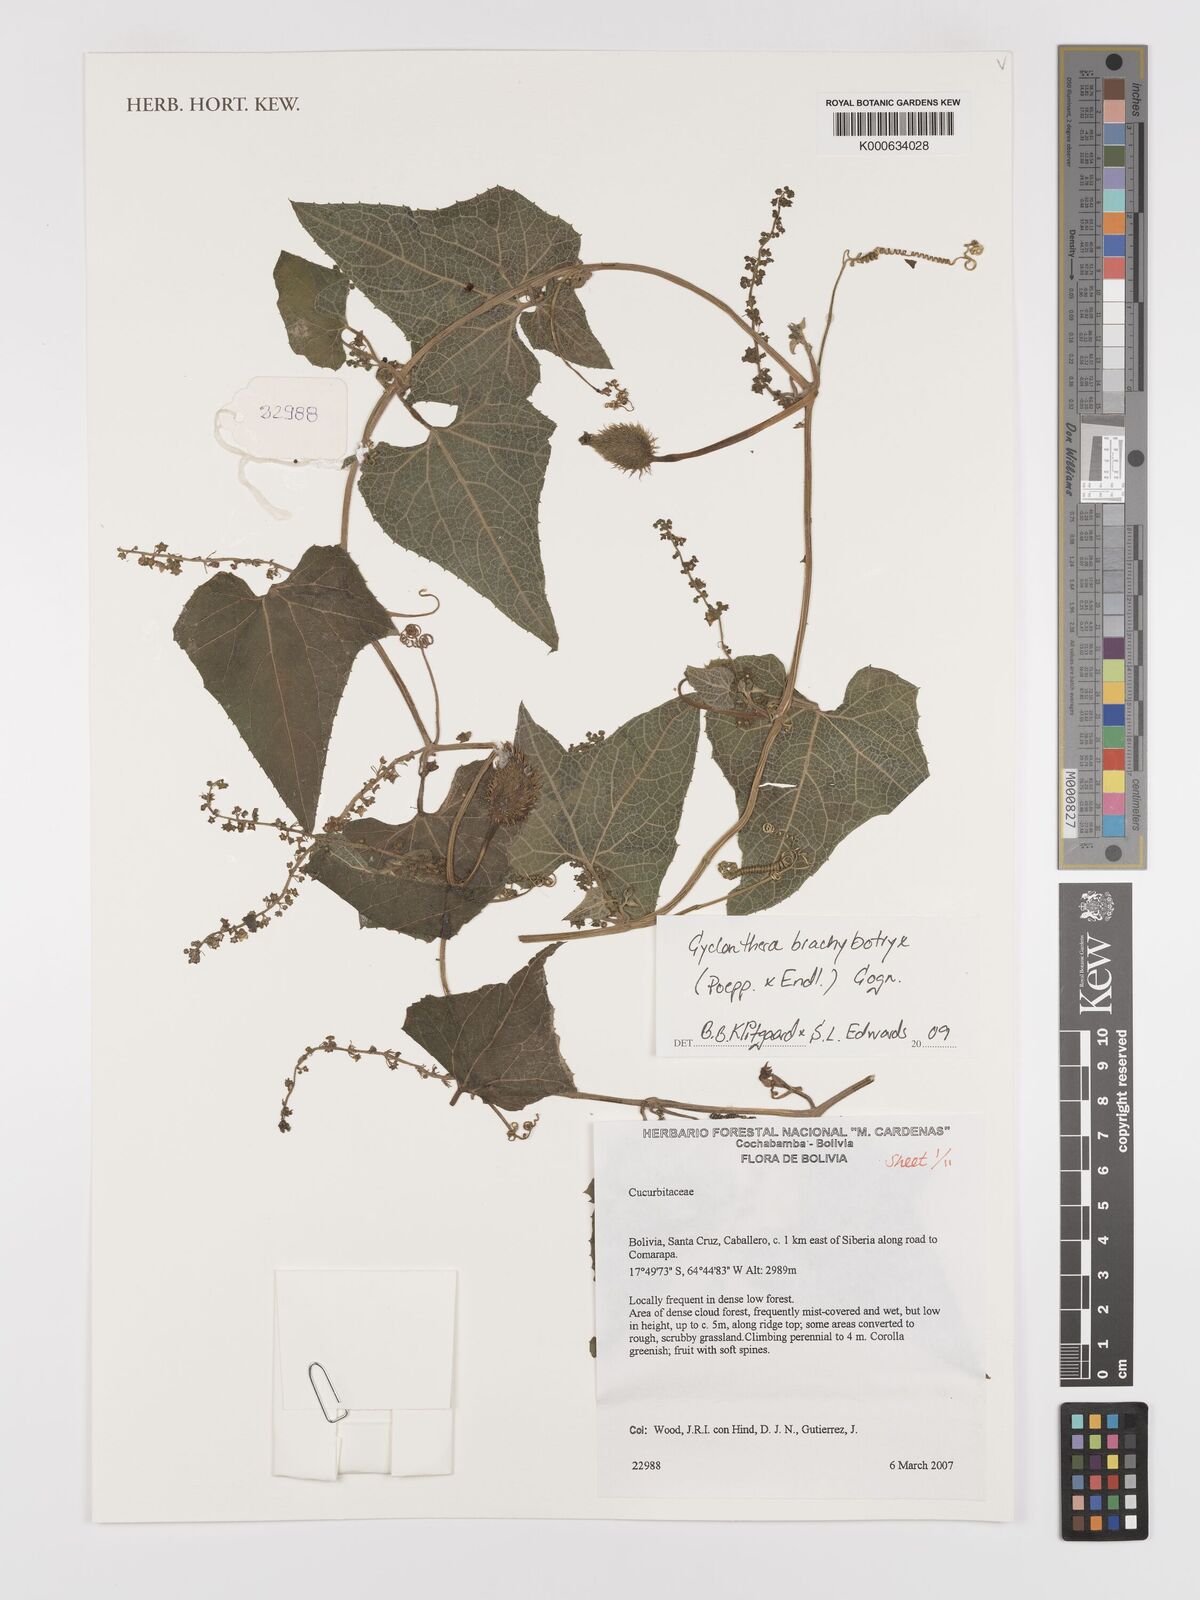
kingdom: Plantae
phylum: Tracheophyta
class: Magnoliopsida
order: Cucurbitales
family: Cucurbitaceae
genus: Cyclanthera
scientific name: Cyclanthera
